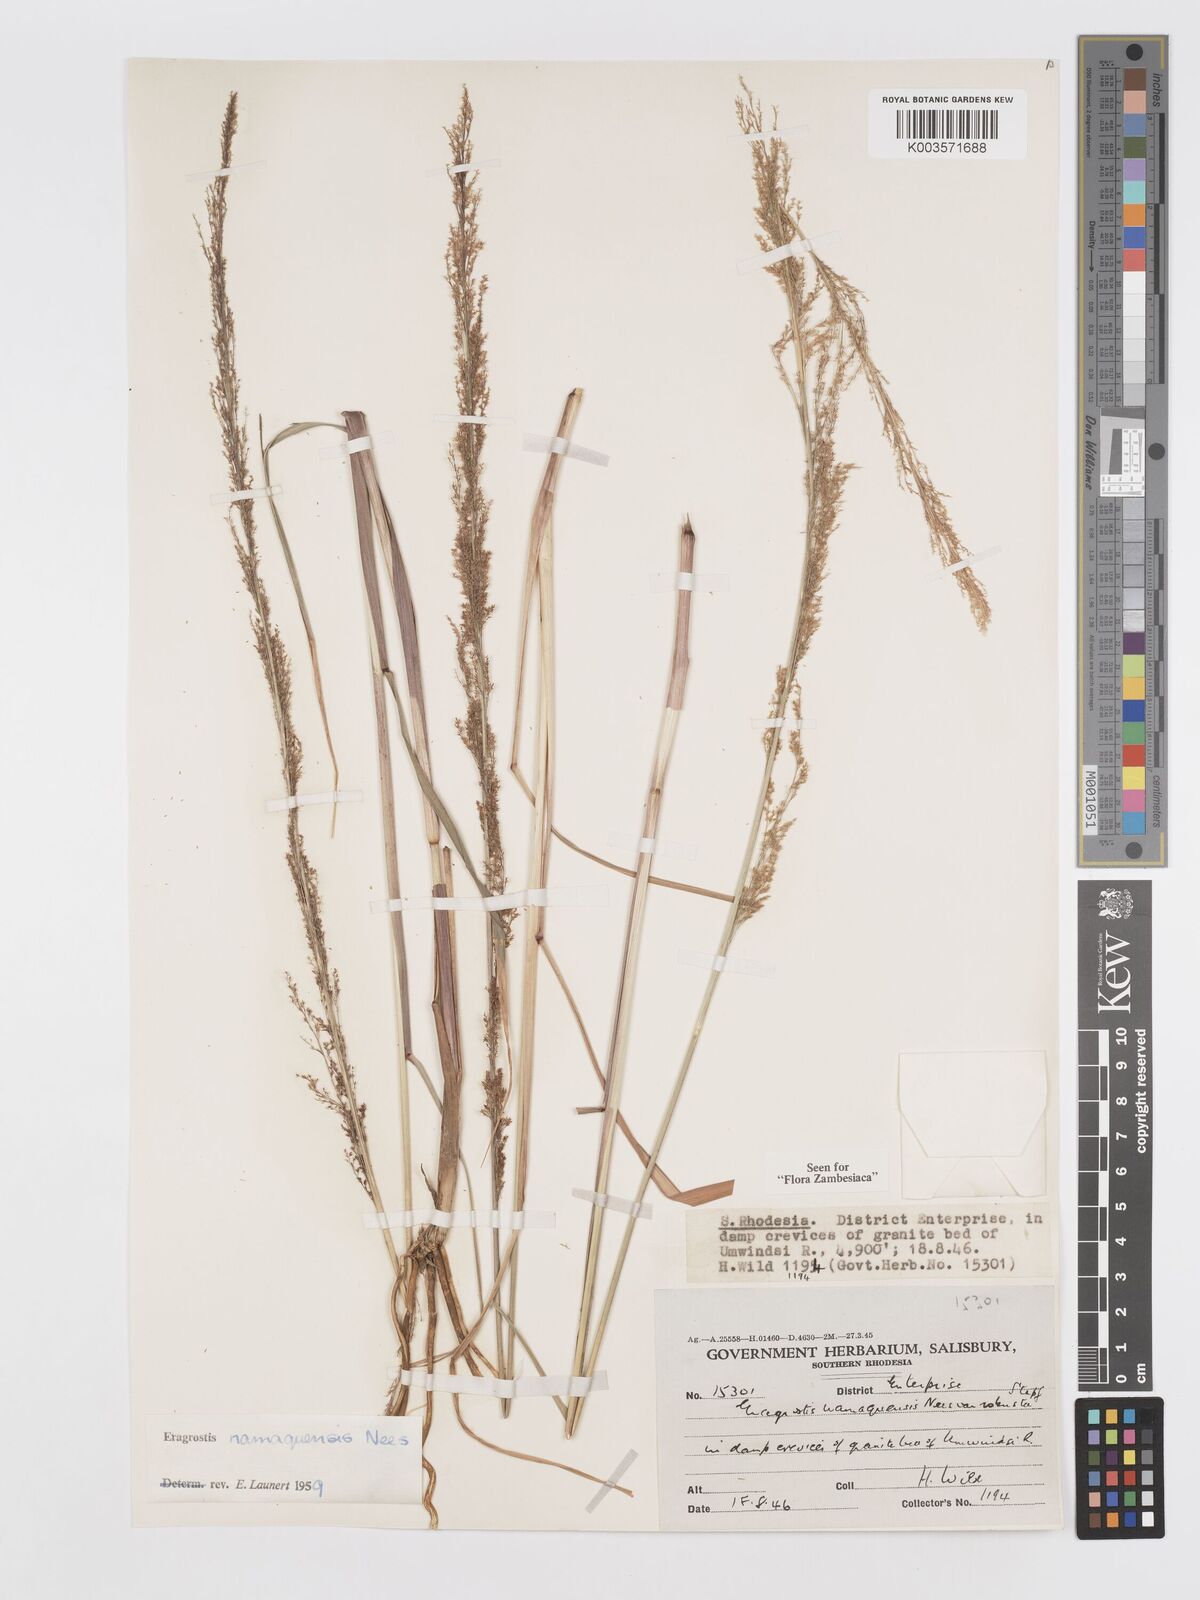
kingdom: Plantae
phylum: Tracheophyta
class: Liliopsida
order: Poales
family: Poaceae
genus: Eragrostis
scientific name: Eragrostis japonica
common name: Pond lovegrass
